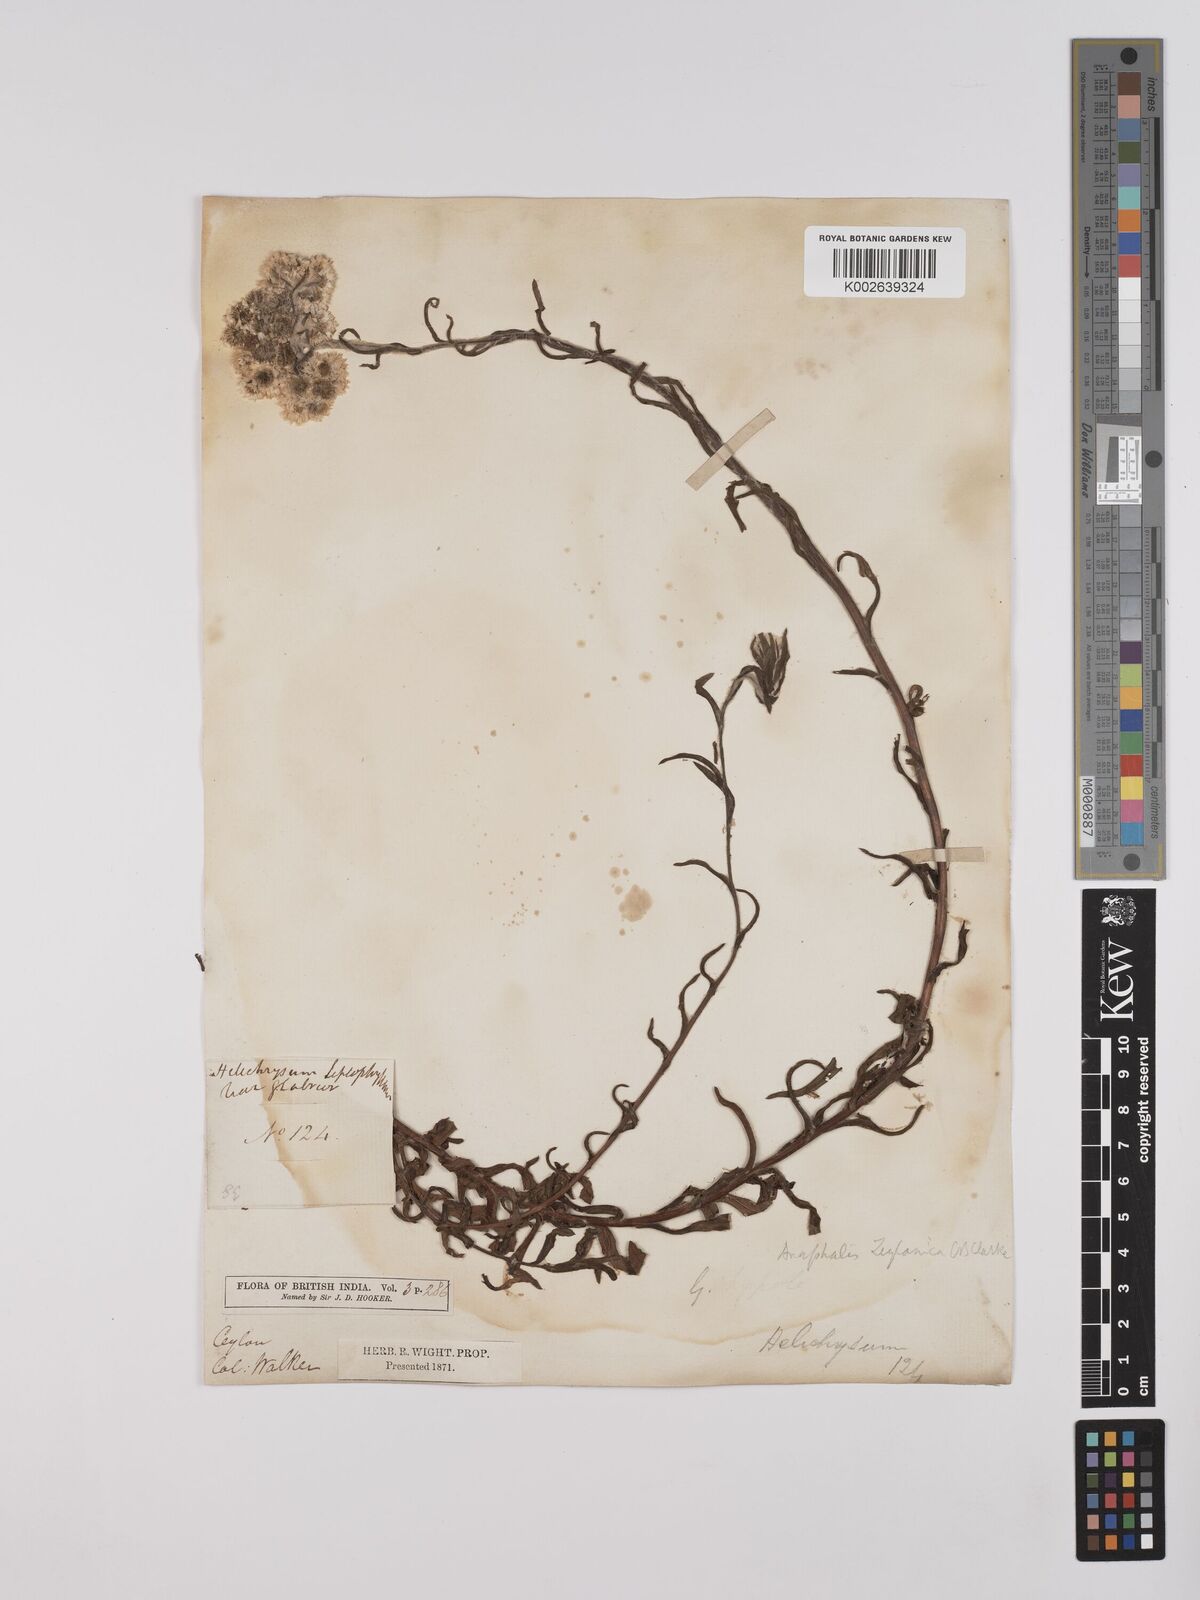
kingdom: Plantae
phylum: Tracheophyta
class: Magnoliopsida
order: Asterales
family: Asteraceae
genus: Anaphalis
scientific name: Anaphalis zeylanica
